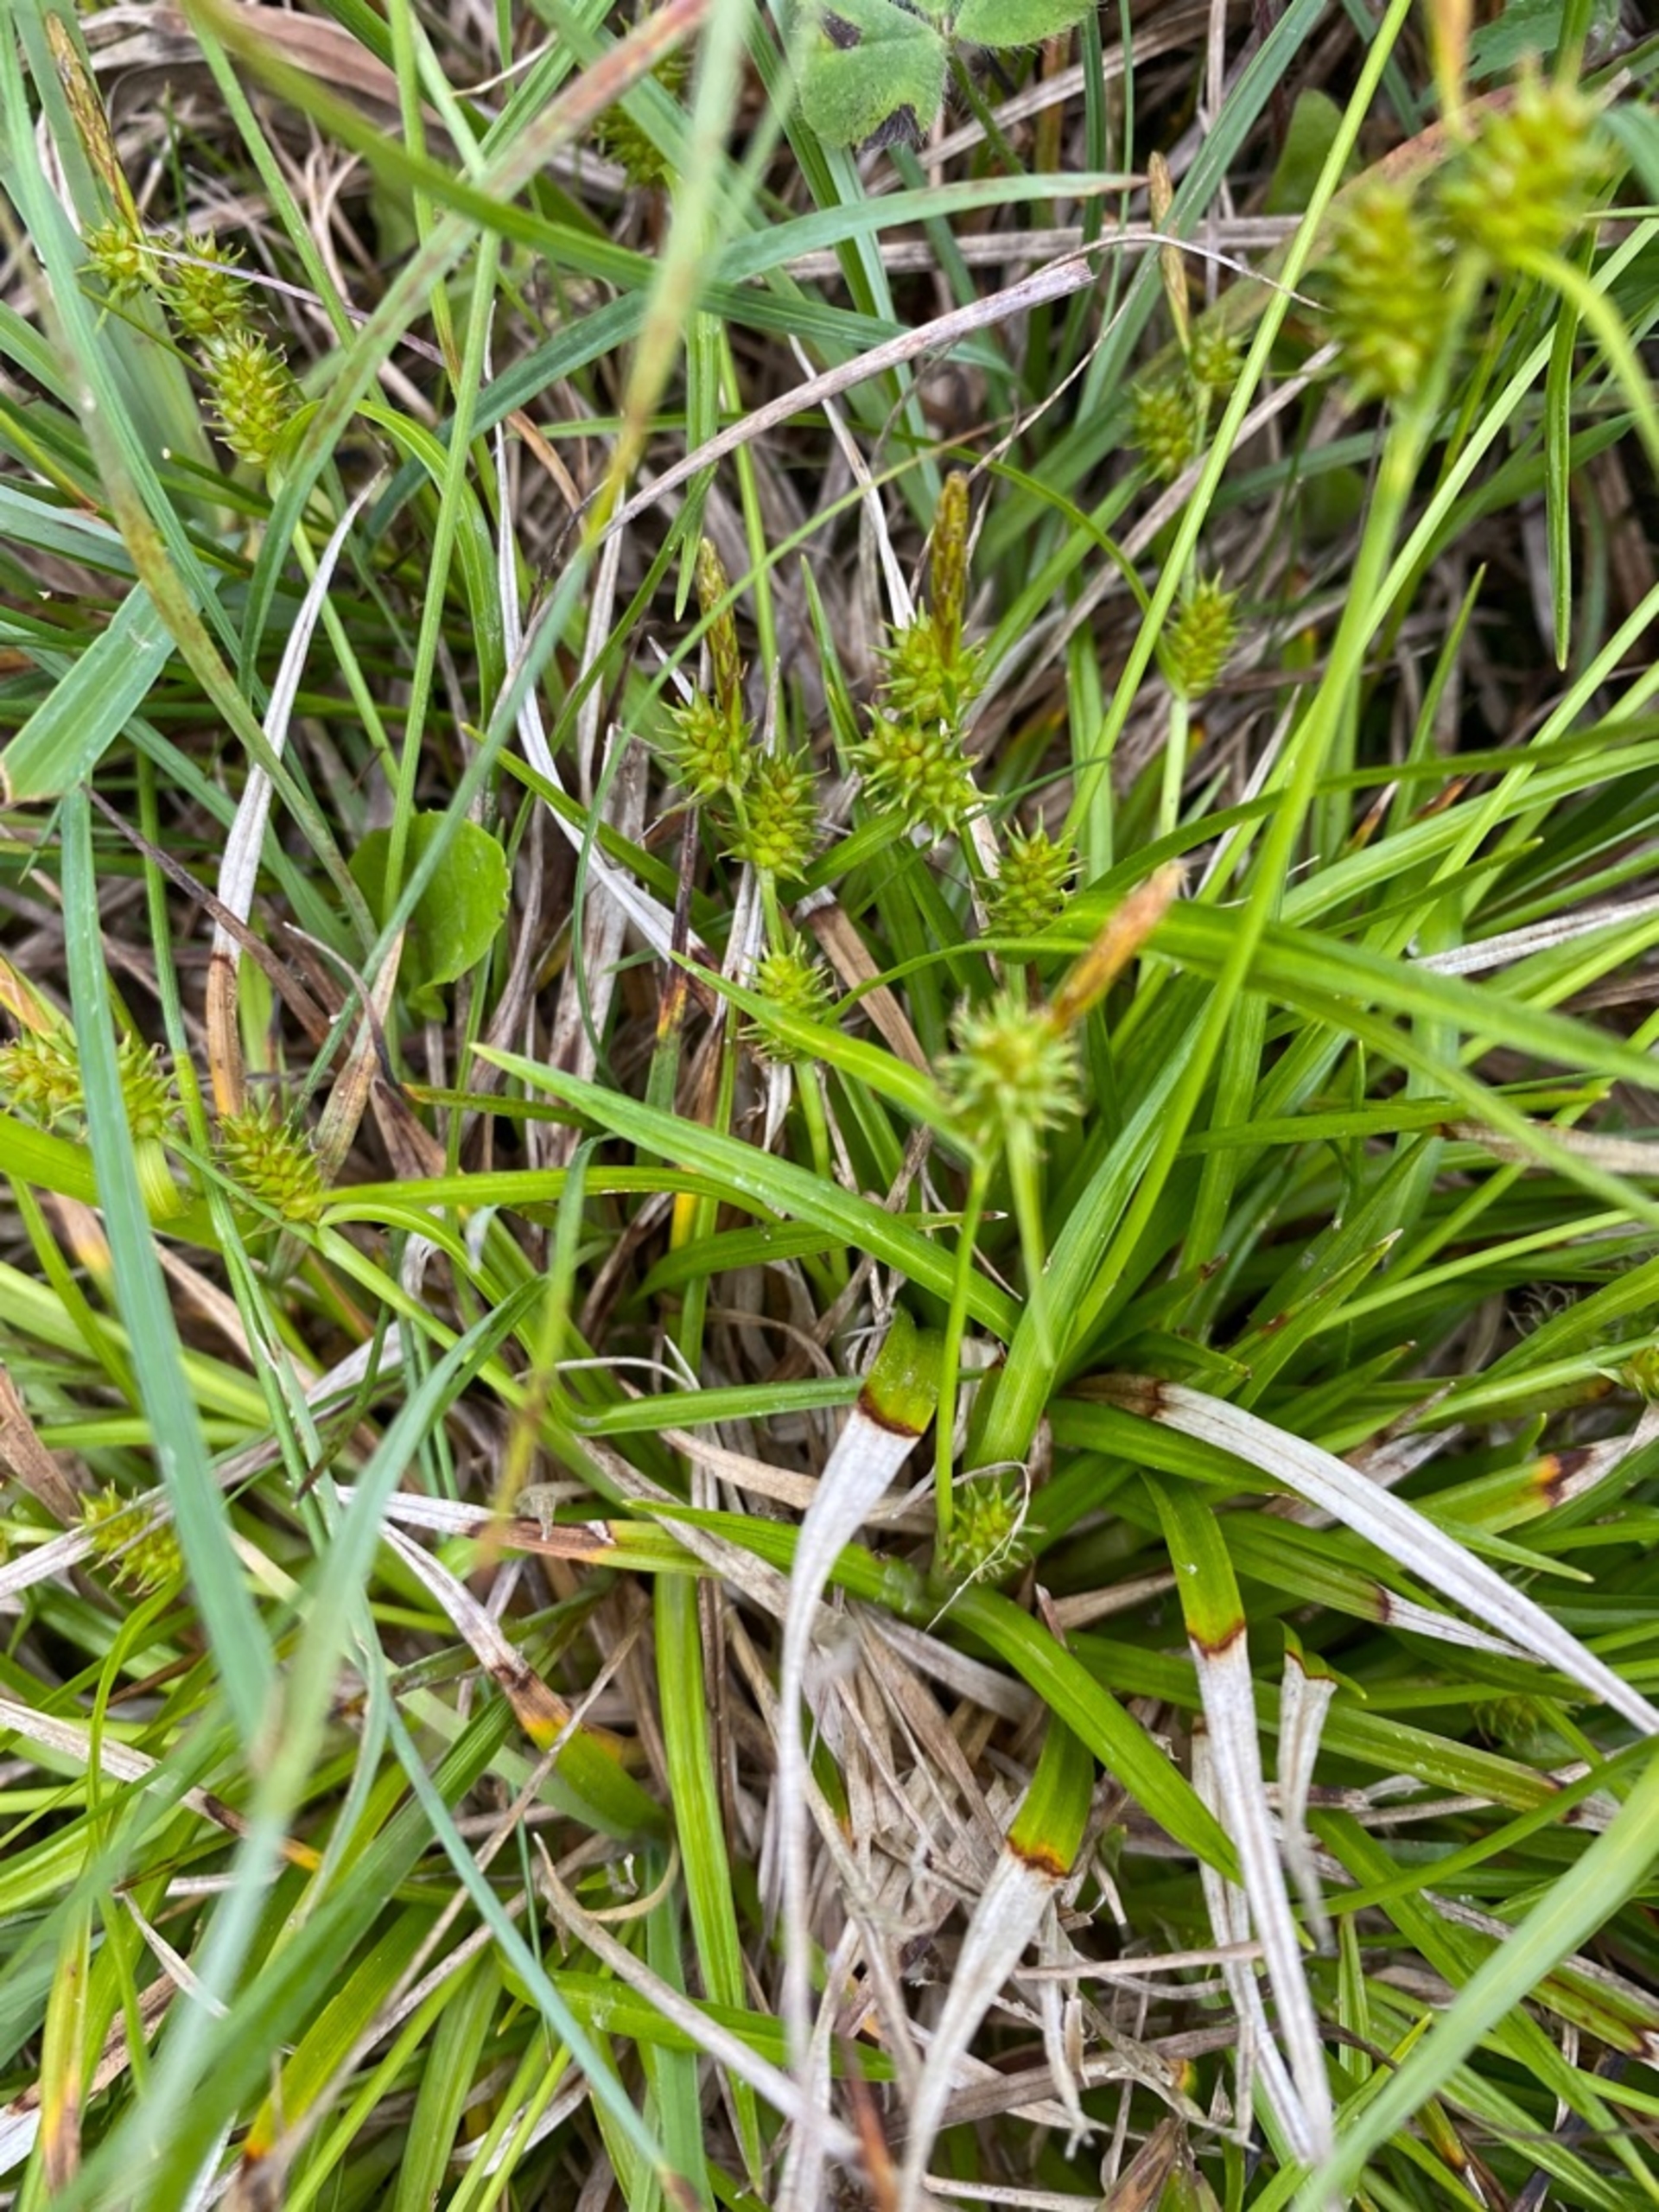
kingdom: Plantae
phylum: Tracheophyta
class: Liliopsida
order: Poales
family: Cyperaceae
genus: Carex
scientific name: Carex demissa
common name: Grøn star
